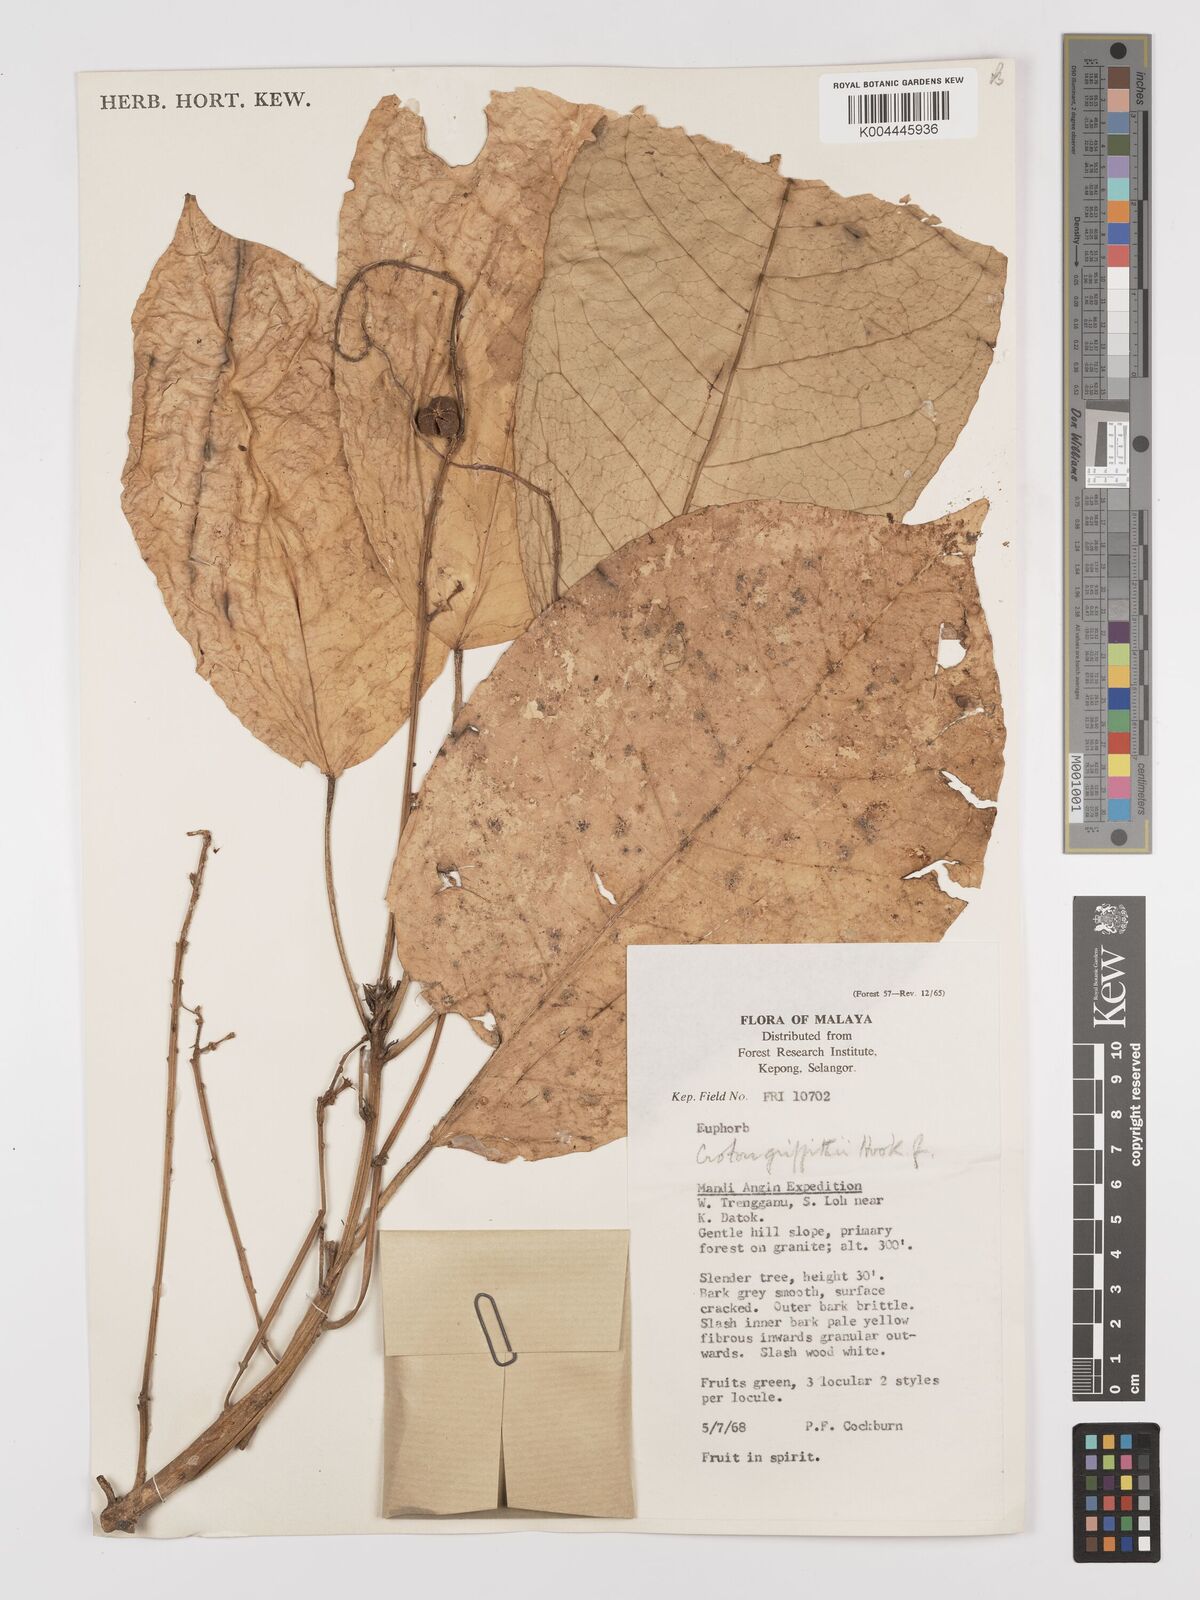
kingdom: Plantae
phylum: Tracheophyta
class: Magnoliopsida
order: Malpighiales
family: Euphorbiaceae
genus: Croton
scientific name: Croton griffithii
